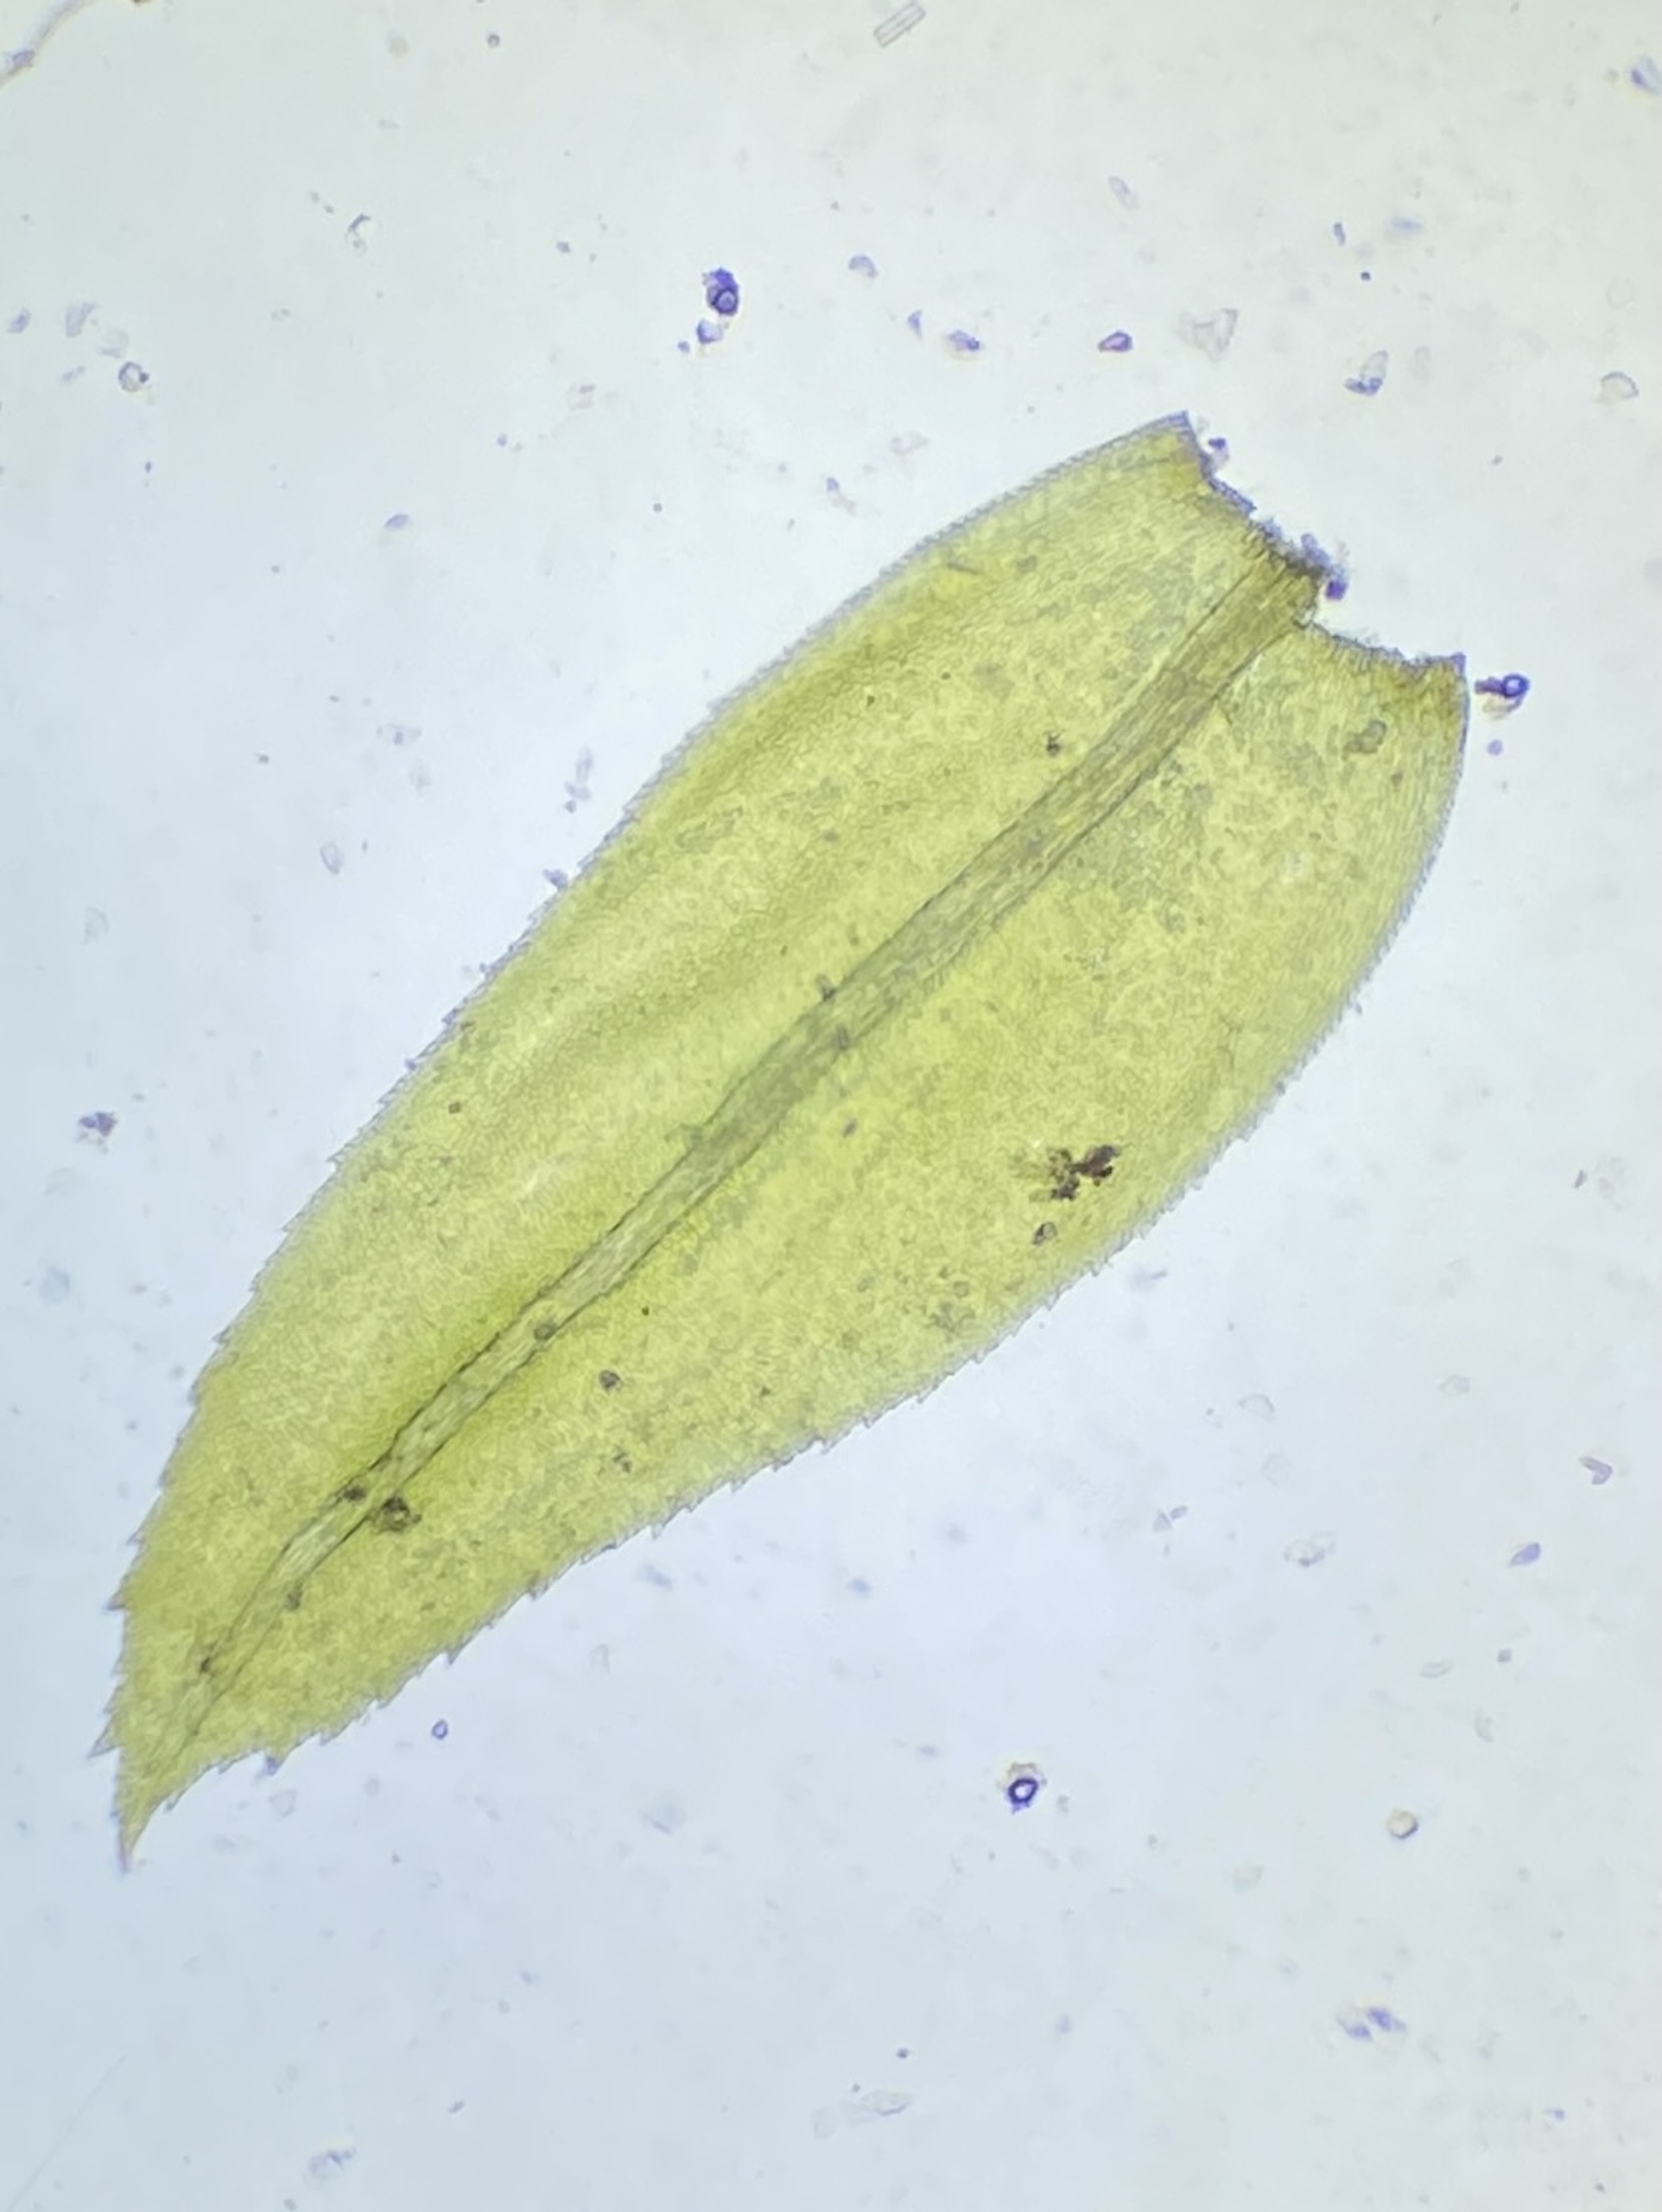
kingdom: Plantae
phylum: Bryophyta
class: Bryopsida
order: Hypnales
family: Neckeraceae
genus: Thamnobryum
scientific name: Thamnobryum alopecurum
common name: Mat bækkost
